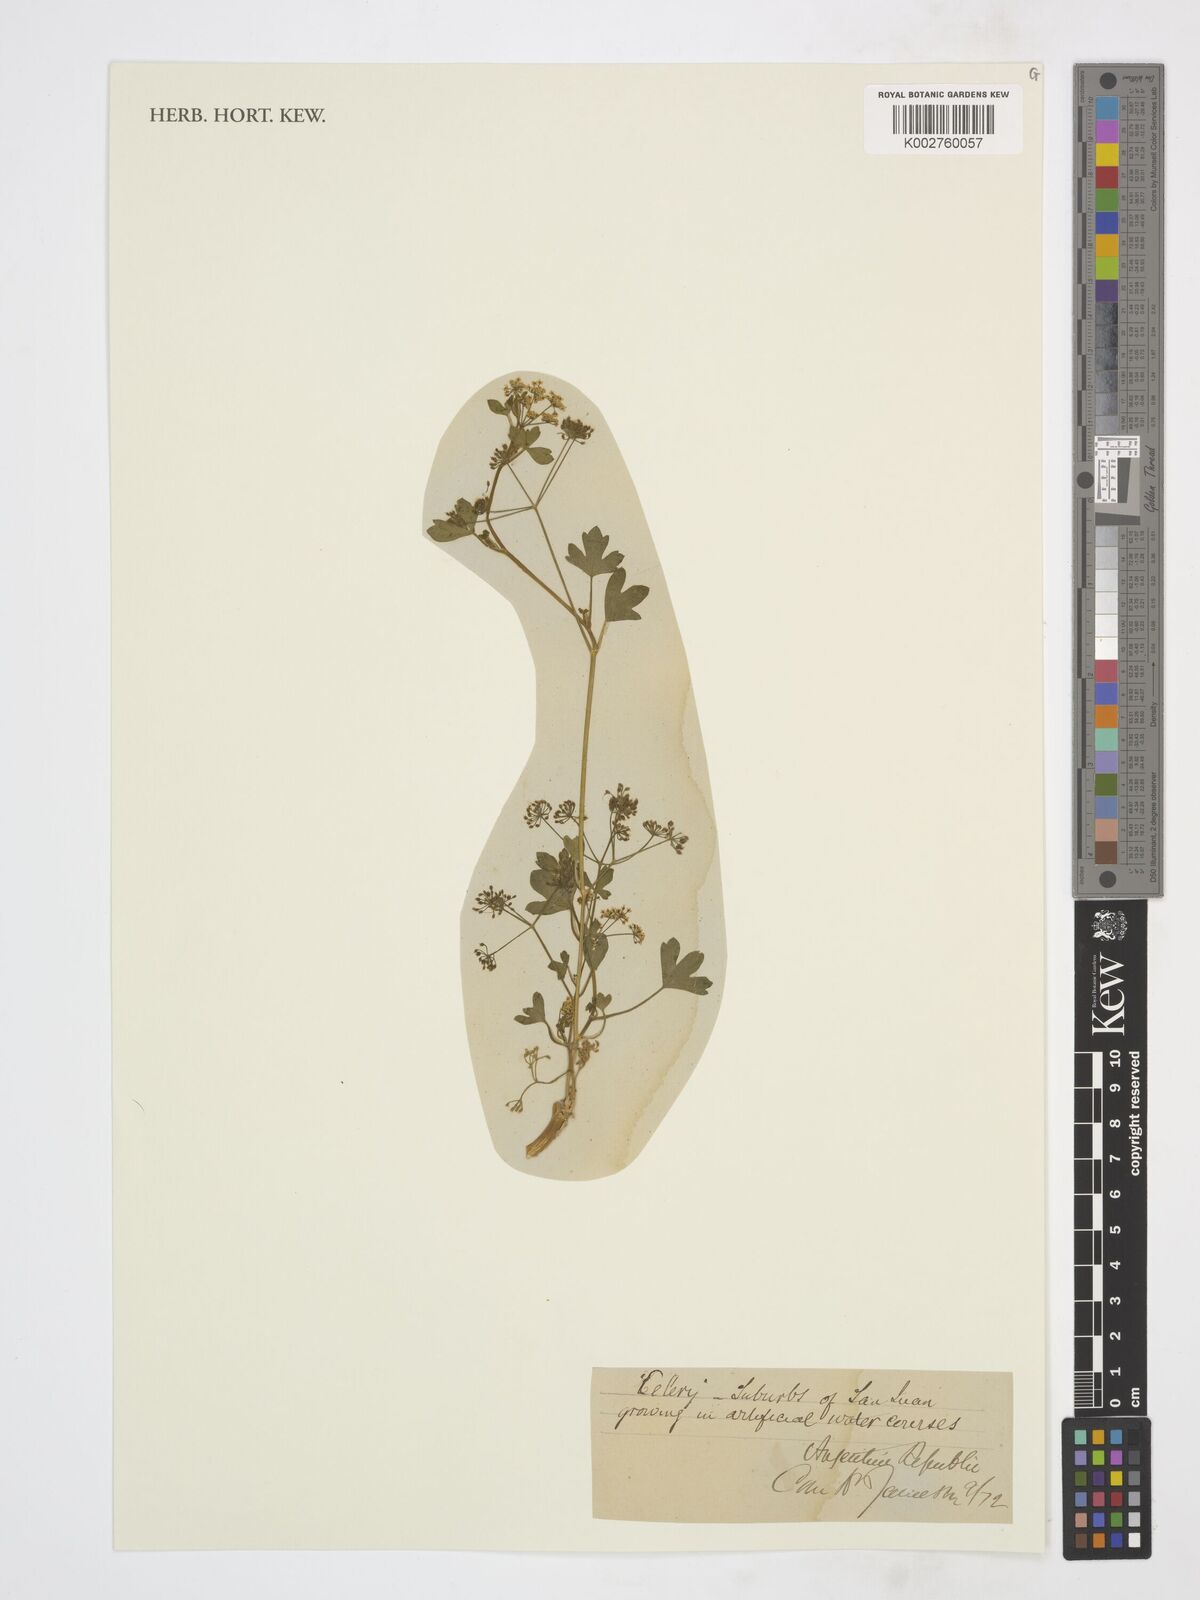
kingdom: Plantae
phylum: Tracheophyta
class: Magnoliopsida
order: Apiales
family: Apiaceae
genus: Apium
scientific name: Apium
